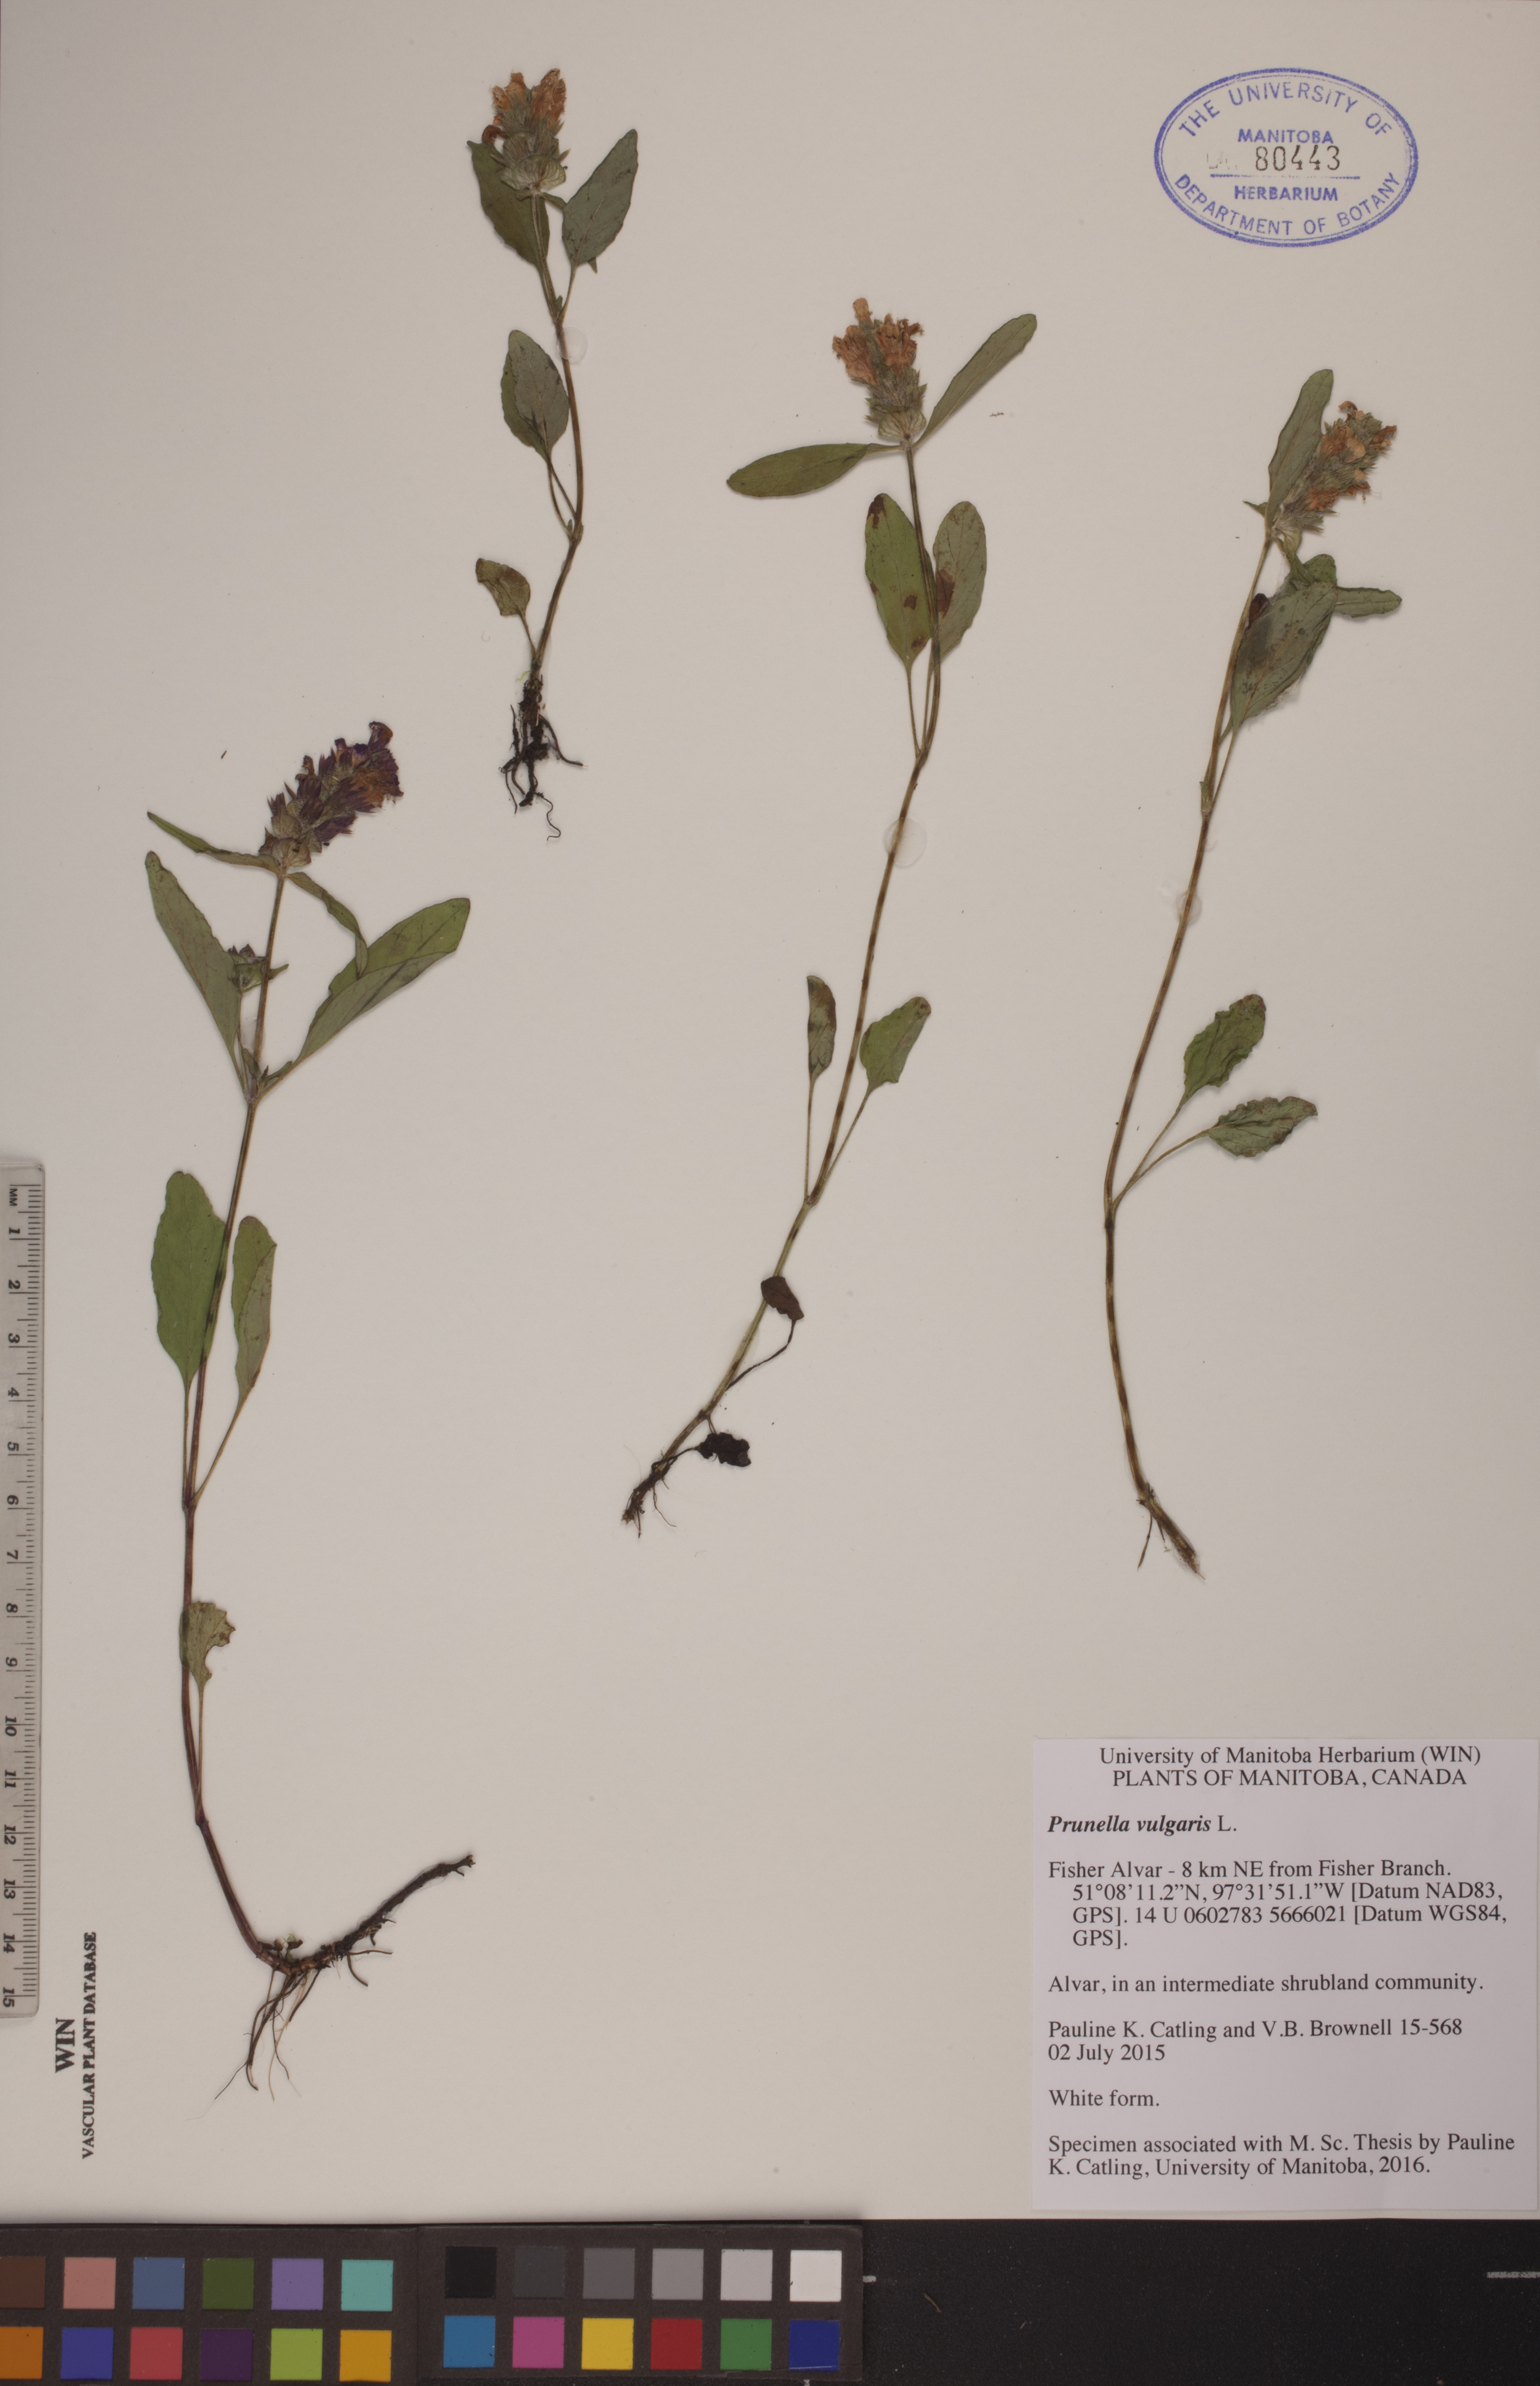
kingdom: Plantae
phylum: Tracheophyta
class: Magnoliopsida
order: Lamiales
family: Lamiaceae
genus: Prunella
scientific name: Prunella vulgaris
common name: Heal-all
